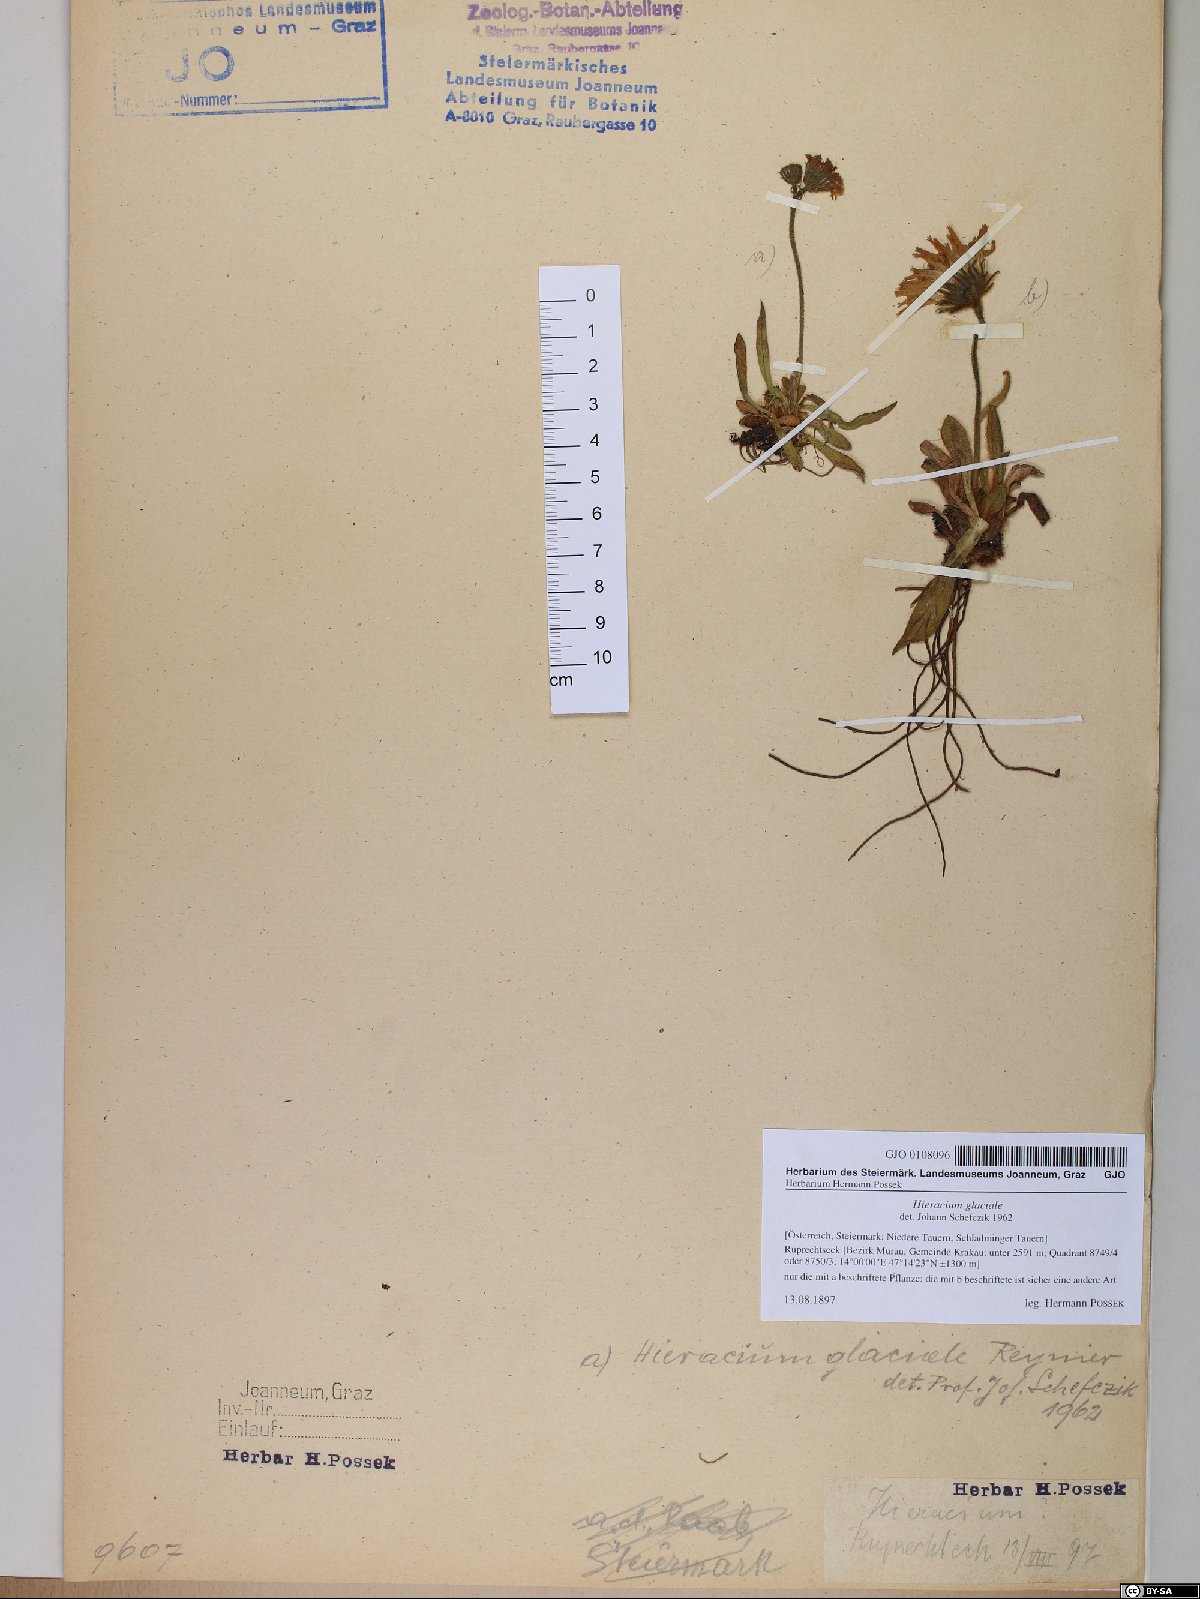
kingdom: Plantae
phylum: Tracheophyta
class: Magnoliopsida
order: Asterales
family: Asteraceae
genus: Pilosella
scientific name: Pilosella glacialis
